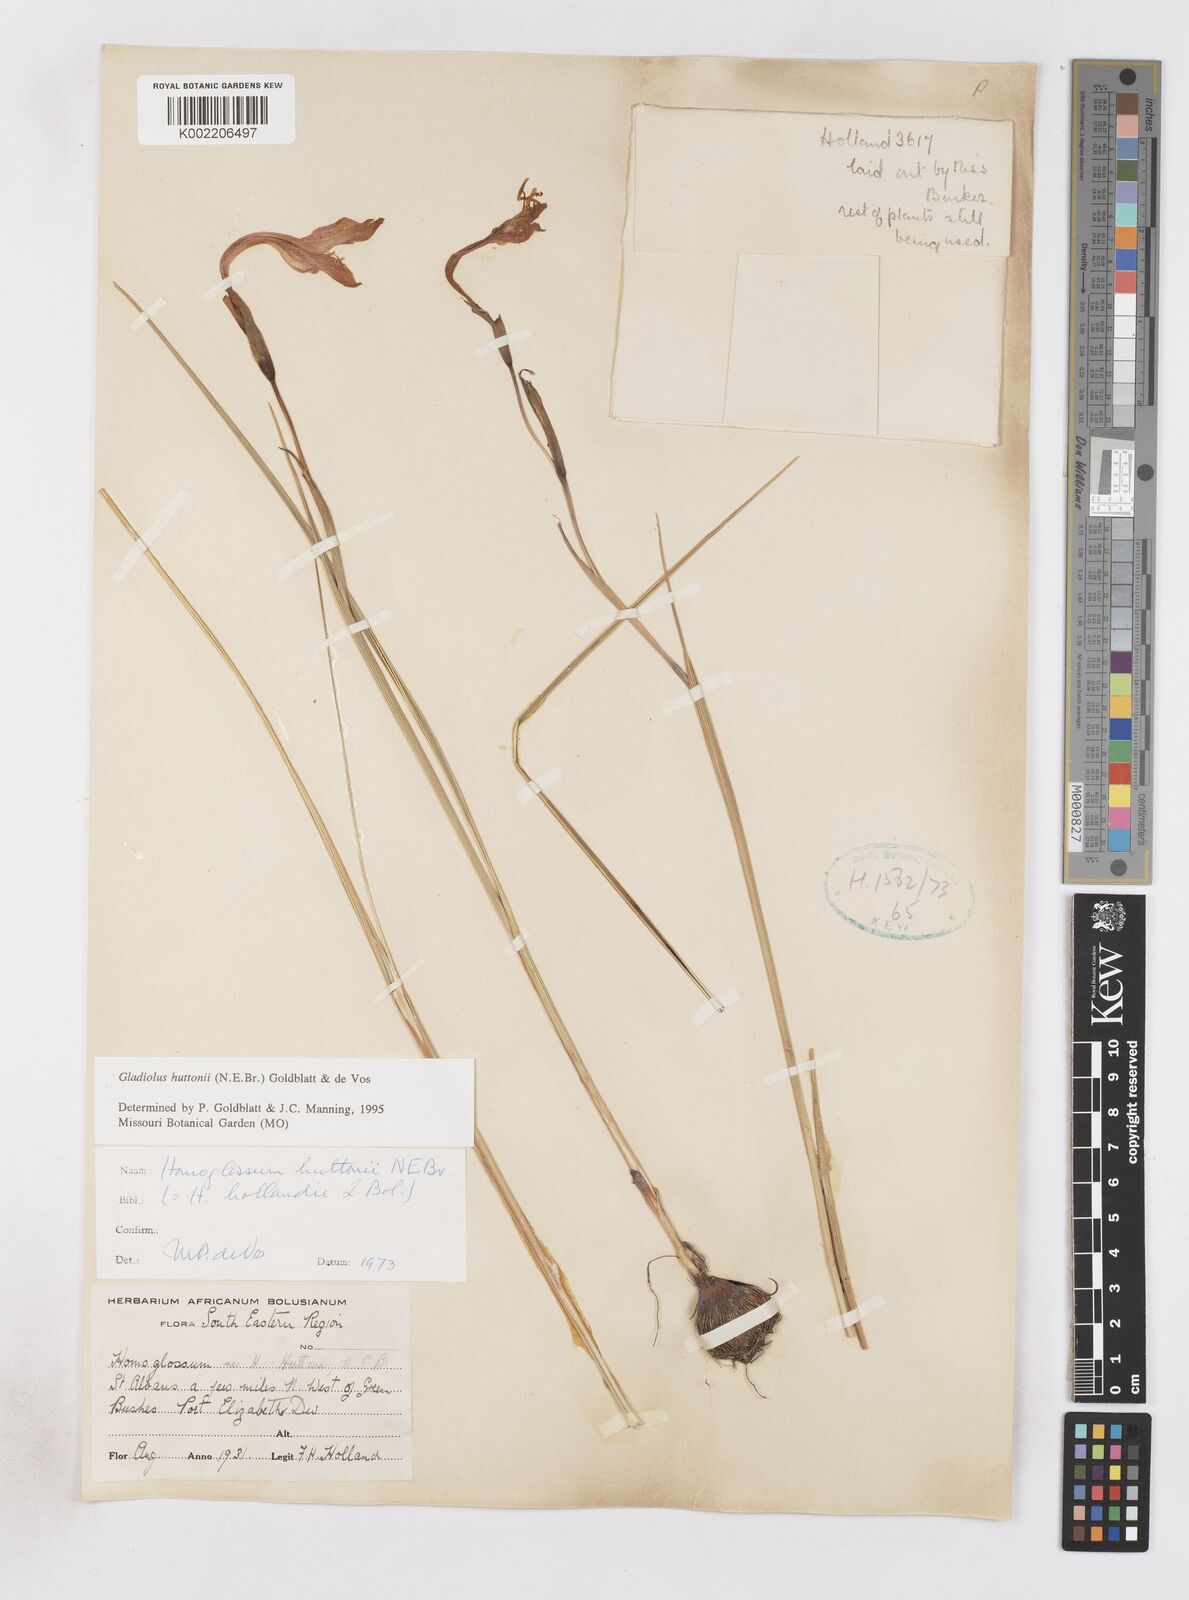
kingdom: Plantae
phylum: Tracheophyta
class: Liliopsida
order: Asparagales
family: Iridaceae
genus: Gladiolus
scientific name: Gladiolus huttonii
